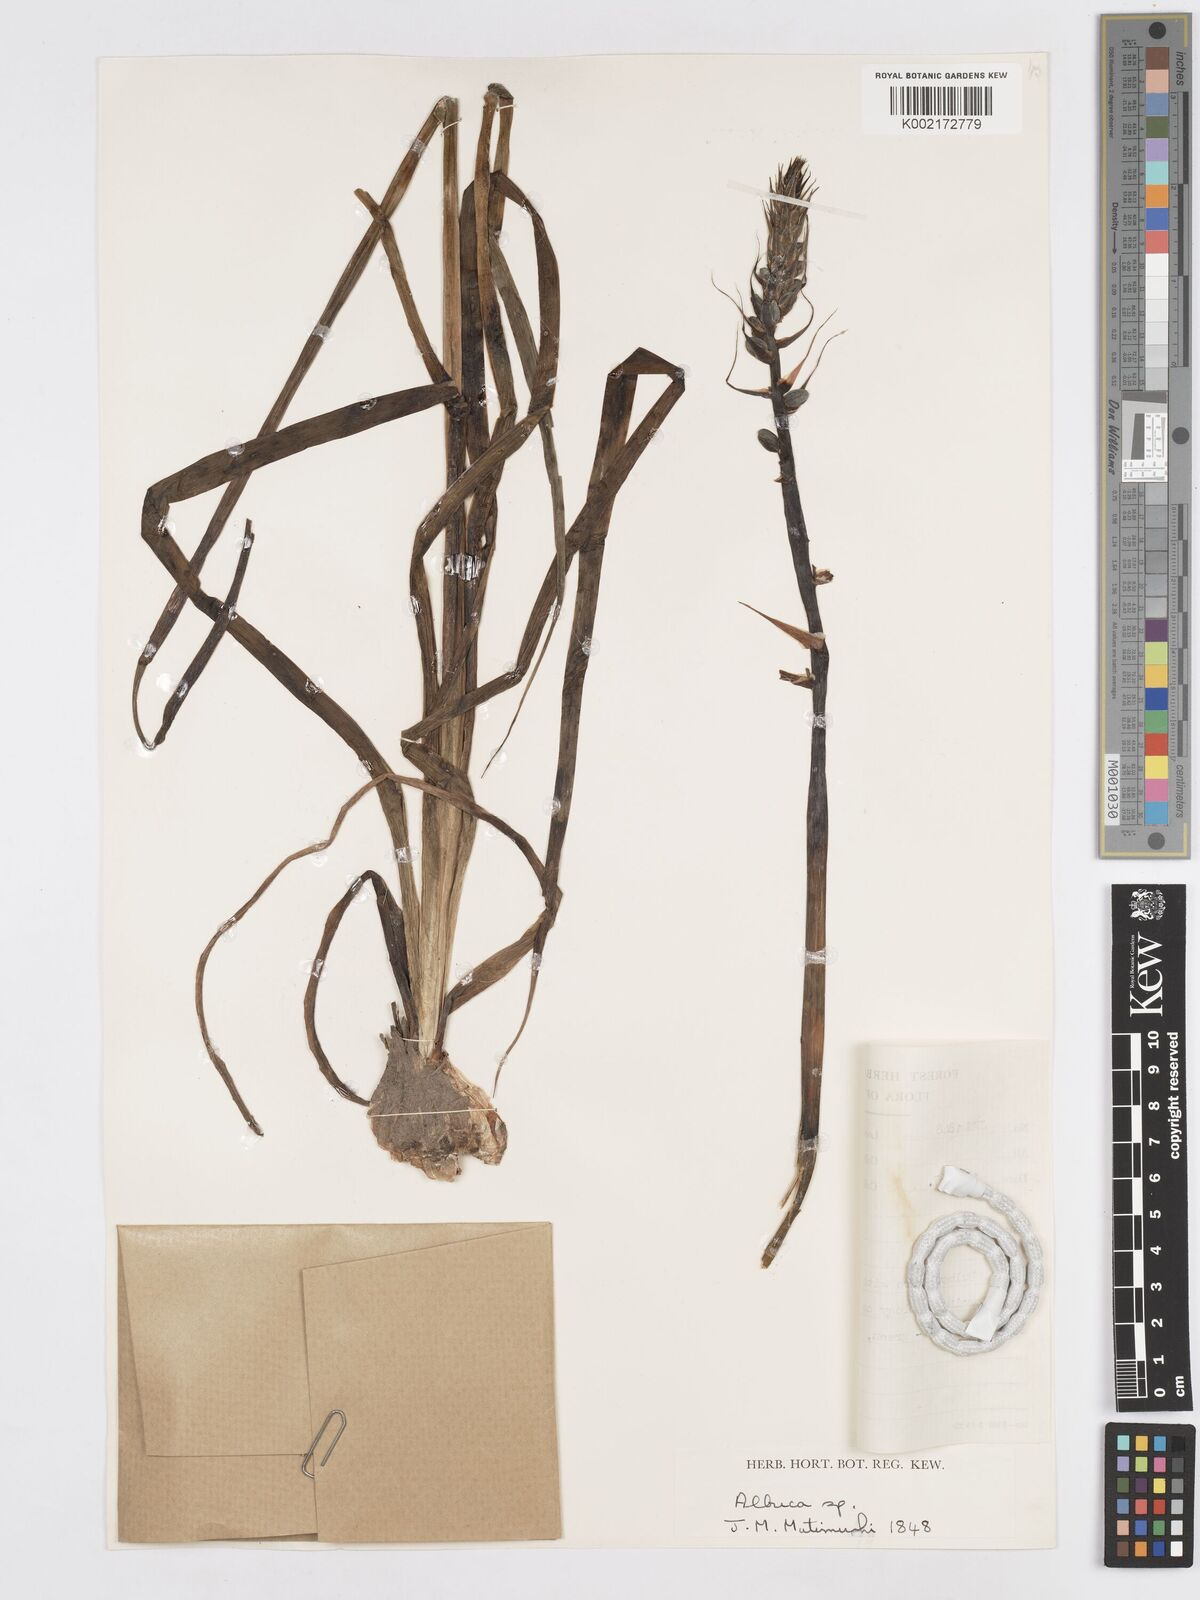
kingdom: Plantae
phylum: Tracheophyta
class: Liliopsida
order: Asparagales
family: Asparagaceae
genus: Albuca
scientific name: Albuca
